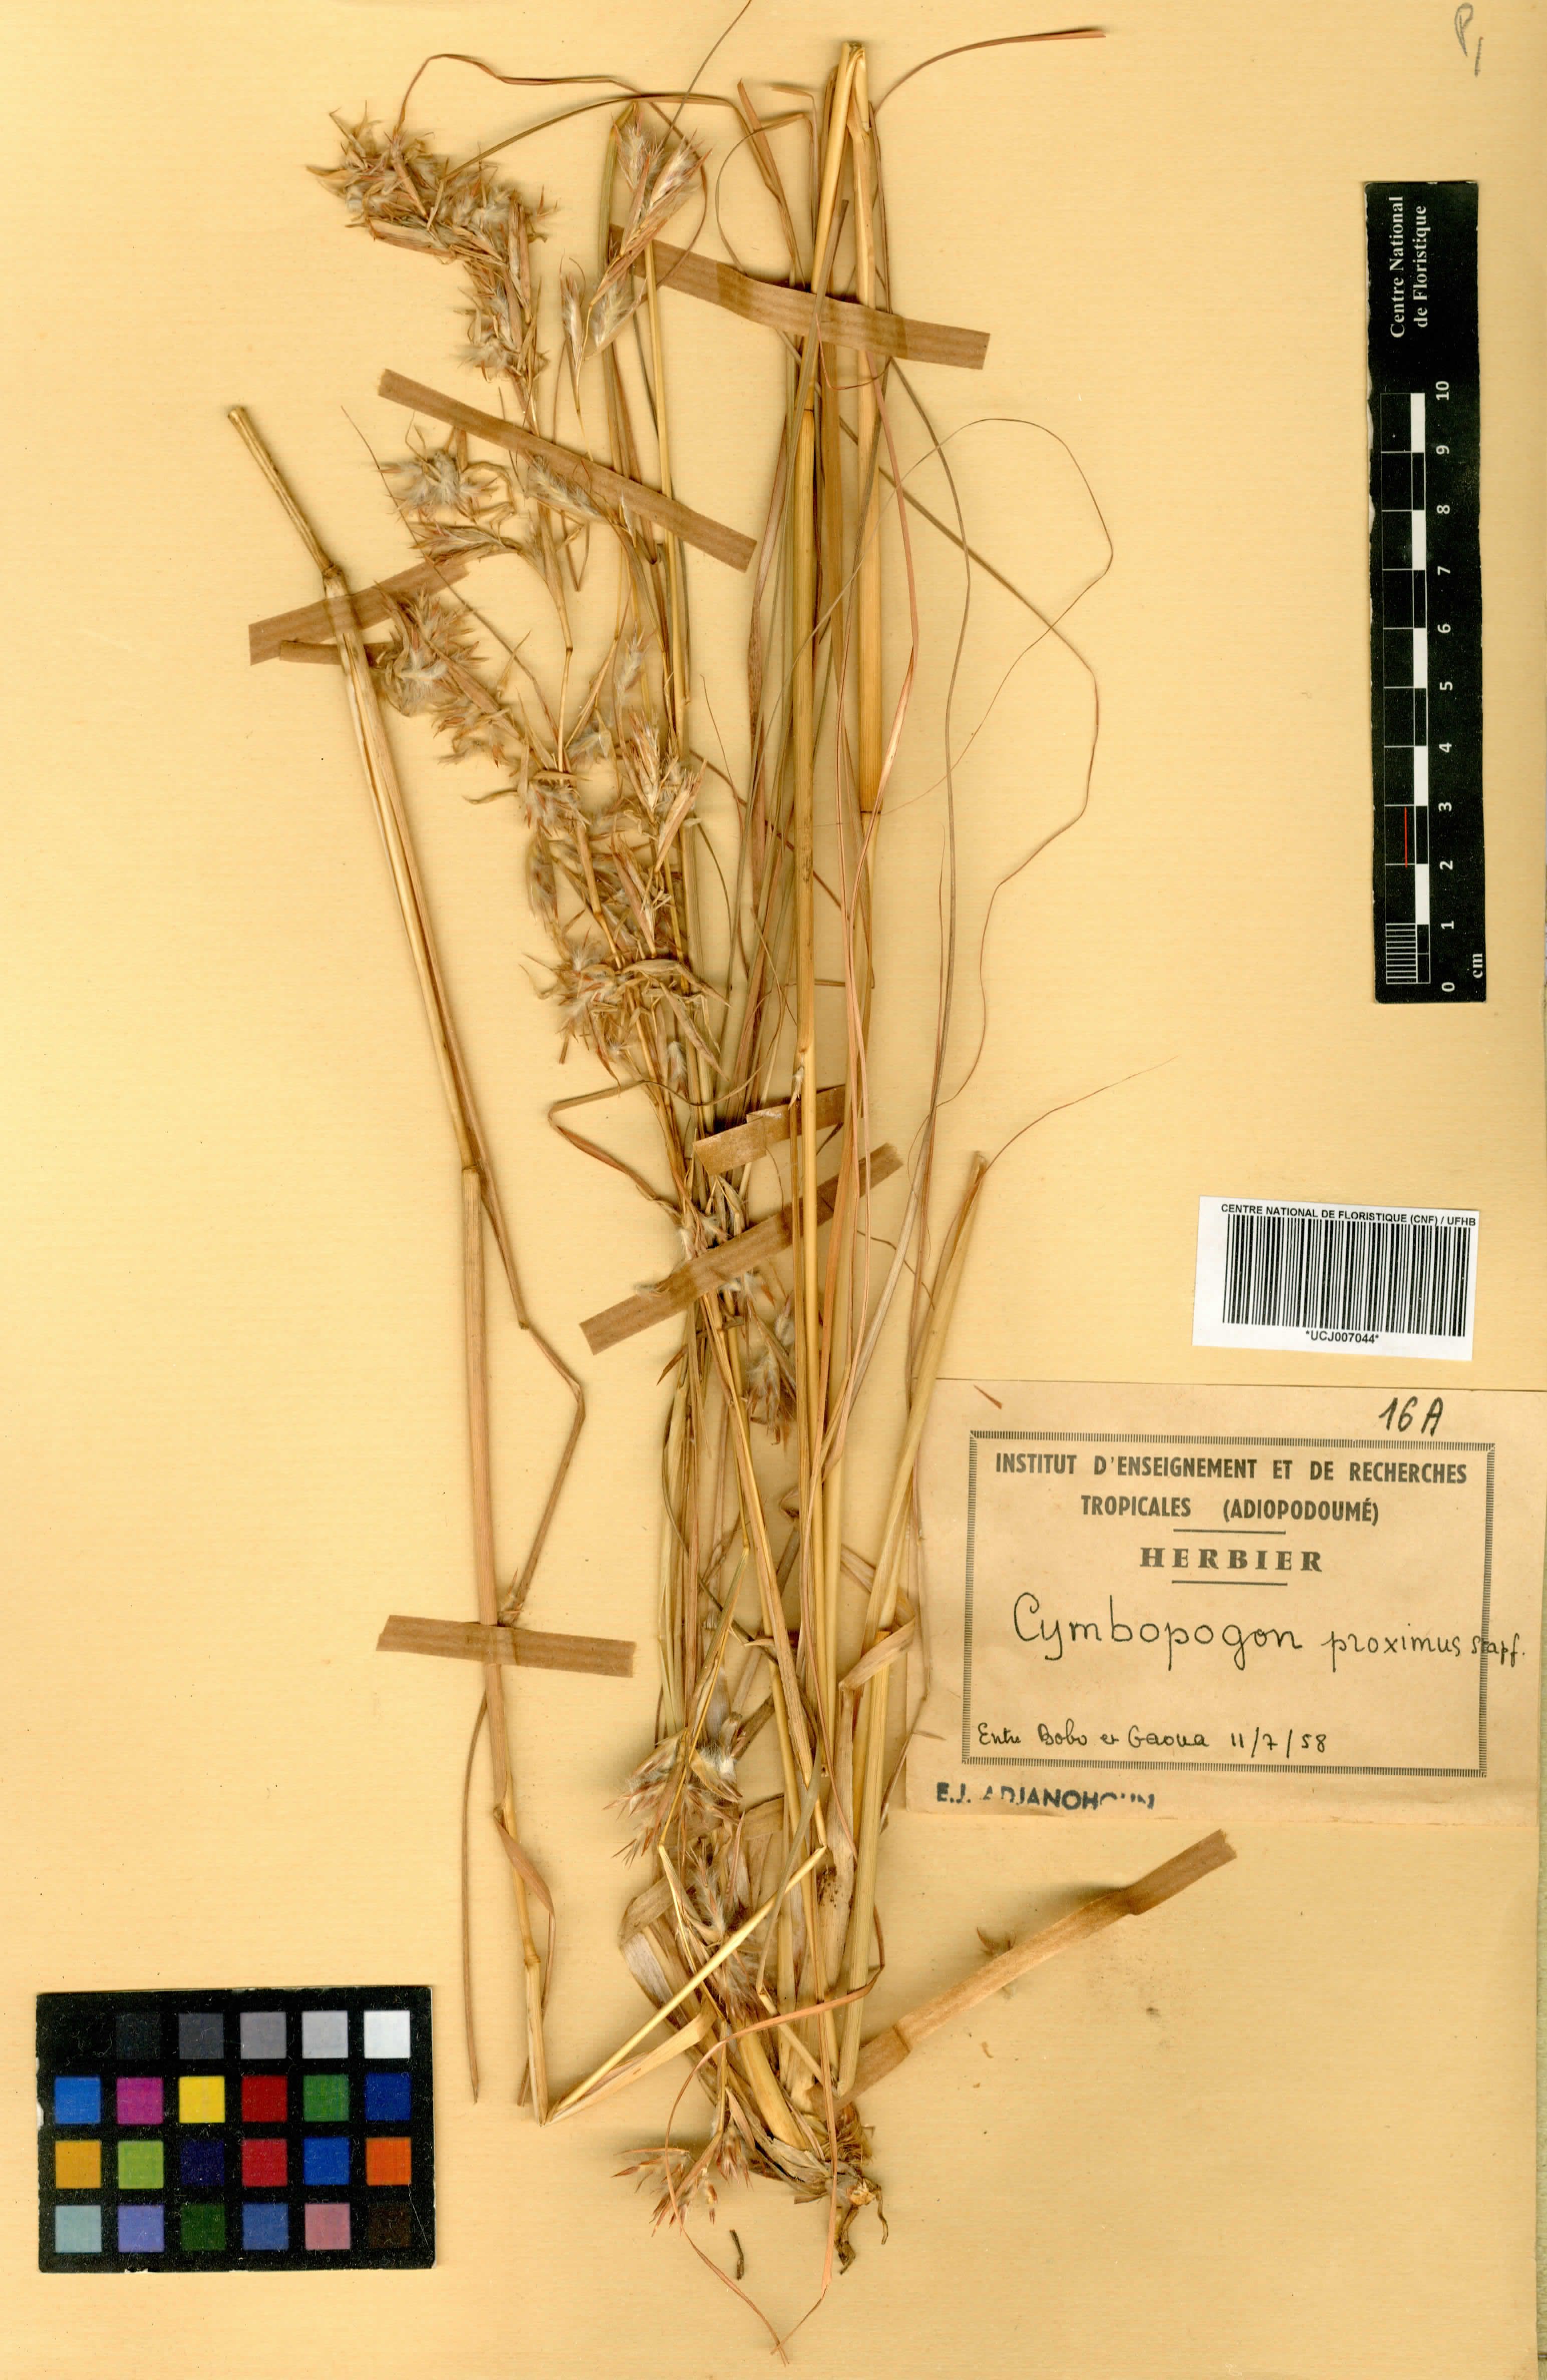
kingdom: Plantae
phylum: Tracheophyta
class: Liliopsida
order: Poales
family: Poaceae
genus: Cymbopogon
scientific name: Cymbopogon schoenanthus
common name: Geranium grass
